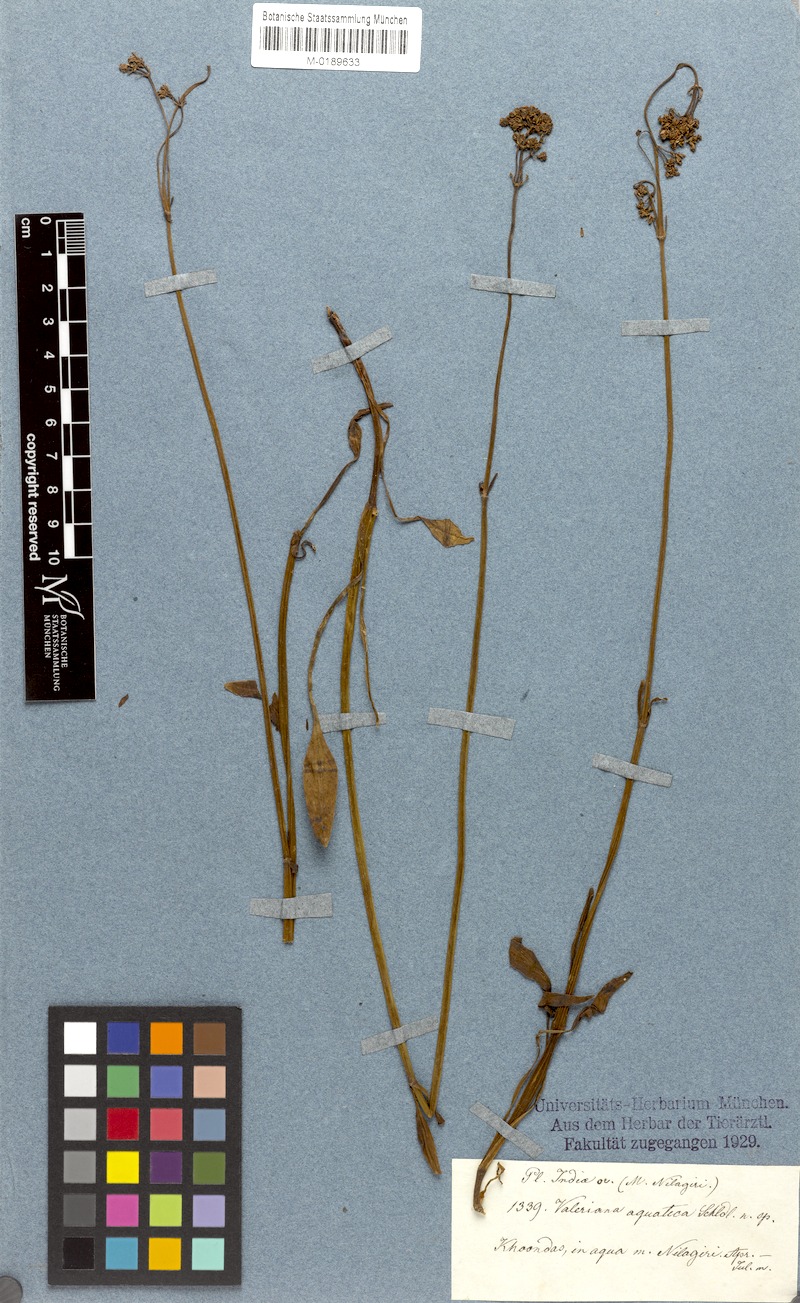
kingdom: Plantae
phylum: Tracheophyta
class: Magnoliopsida
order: Dipsacales
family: Caprifoliaceae
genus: Valeriana
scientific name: Valeriana leschenaultii
